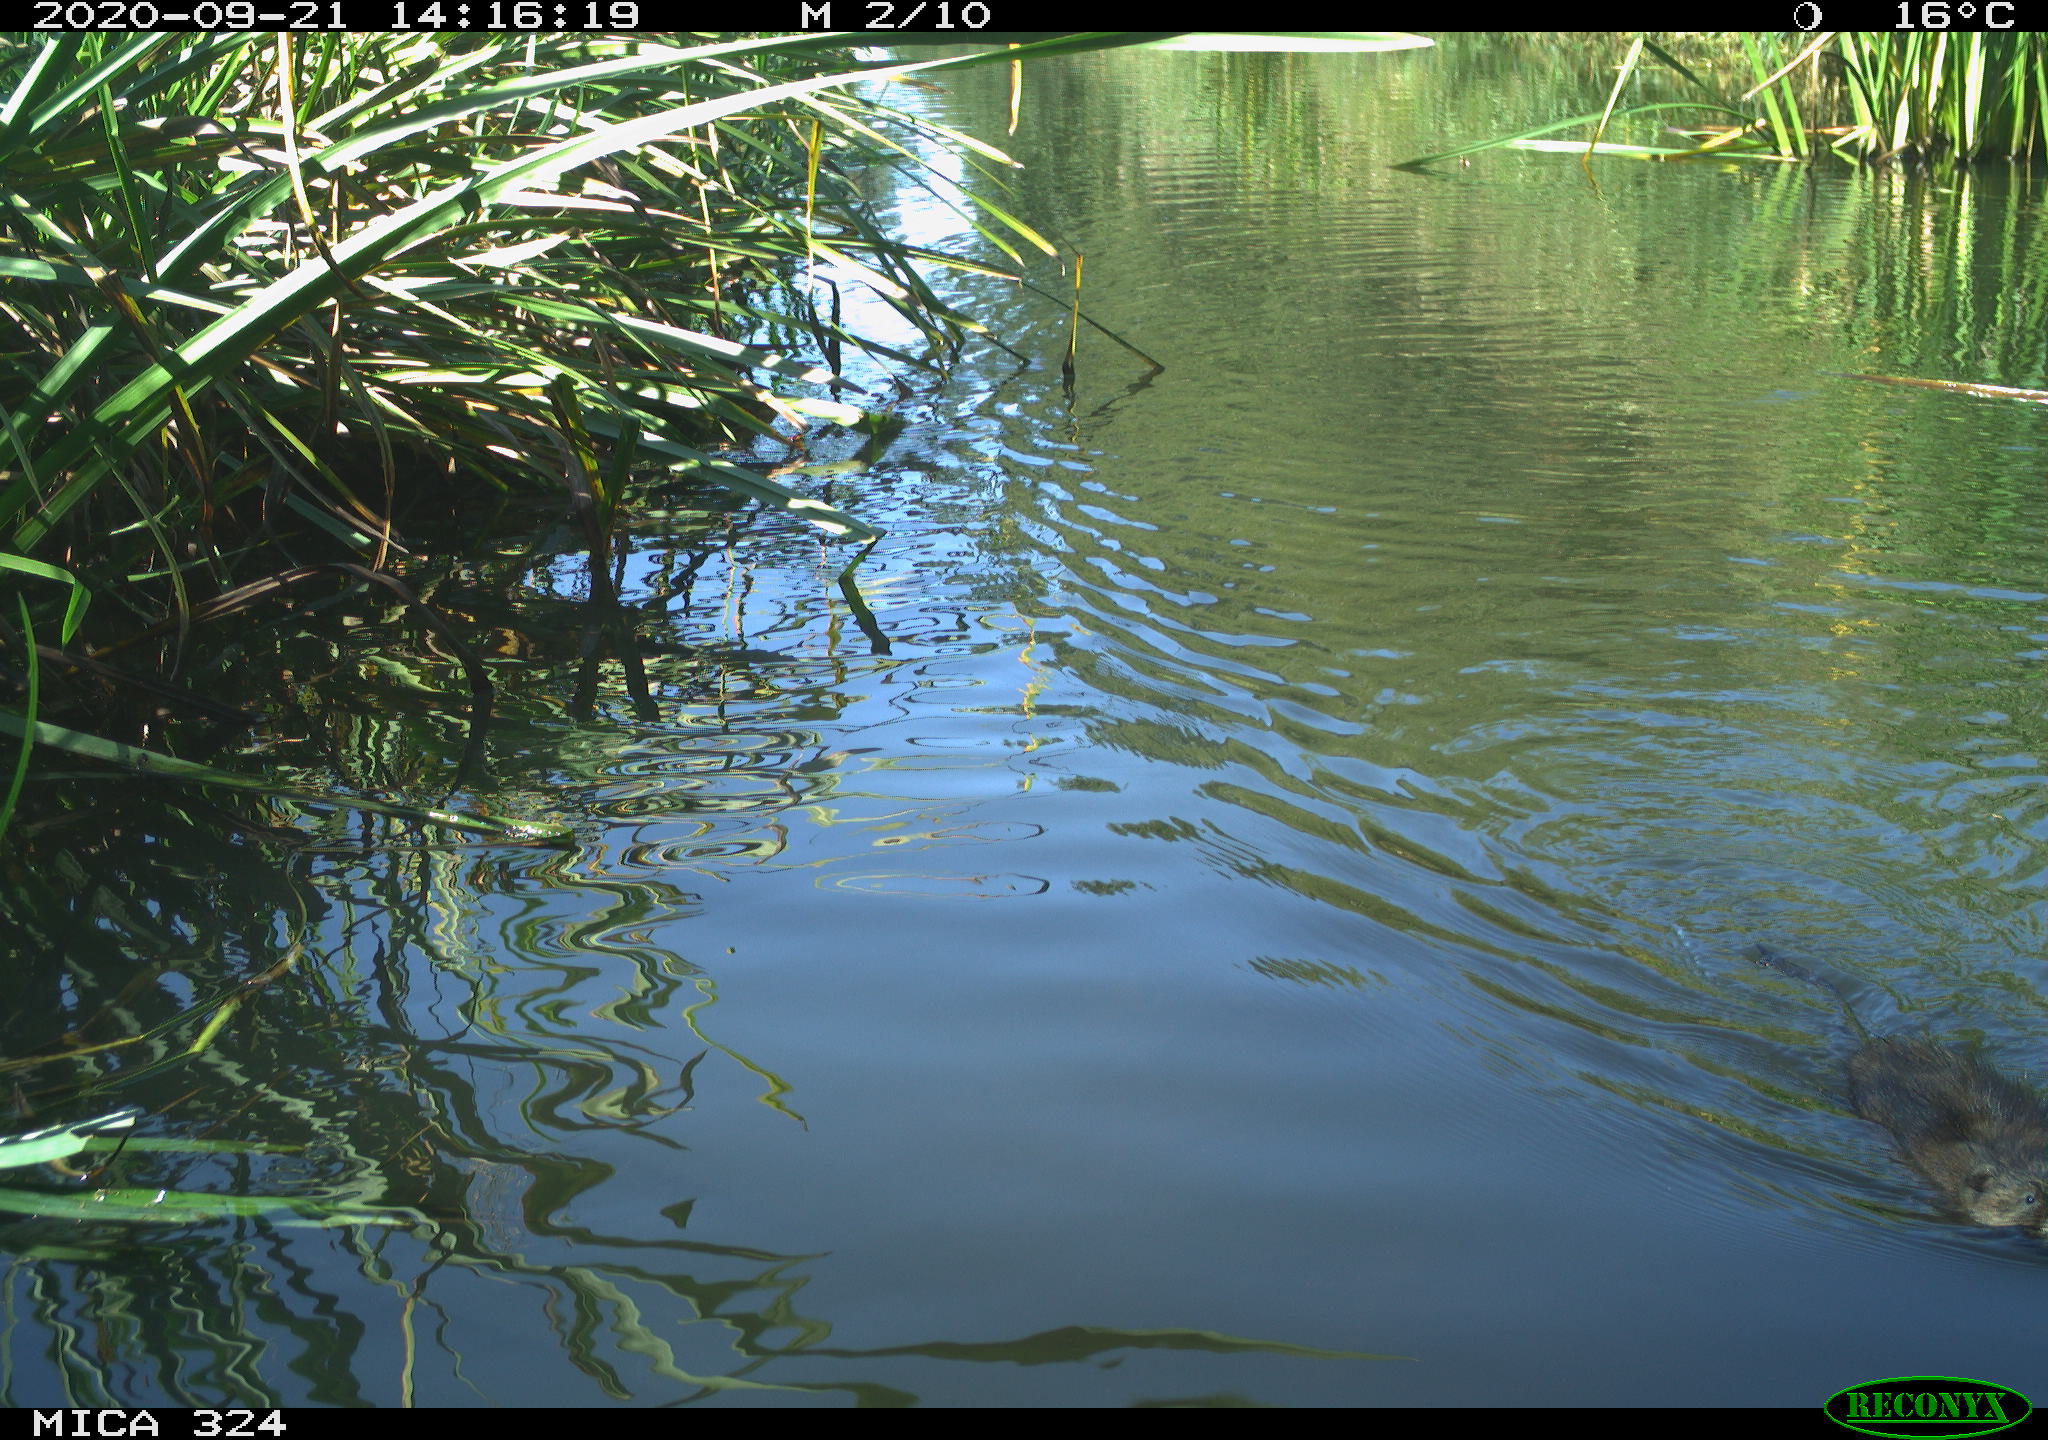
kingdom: Animalia
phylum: Chordata
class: Mammalia
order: Rodentia
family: Cricetidae
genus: Ondatra
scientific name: Ondatra zibethicus
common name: Muskrat
